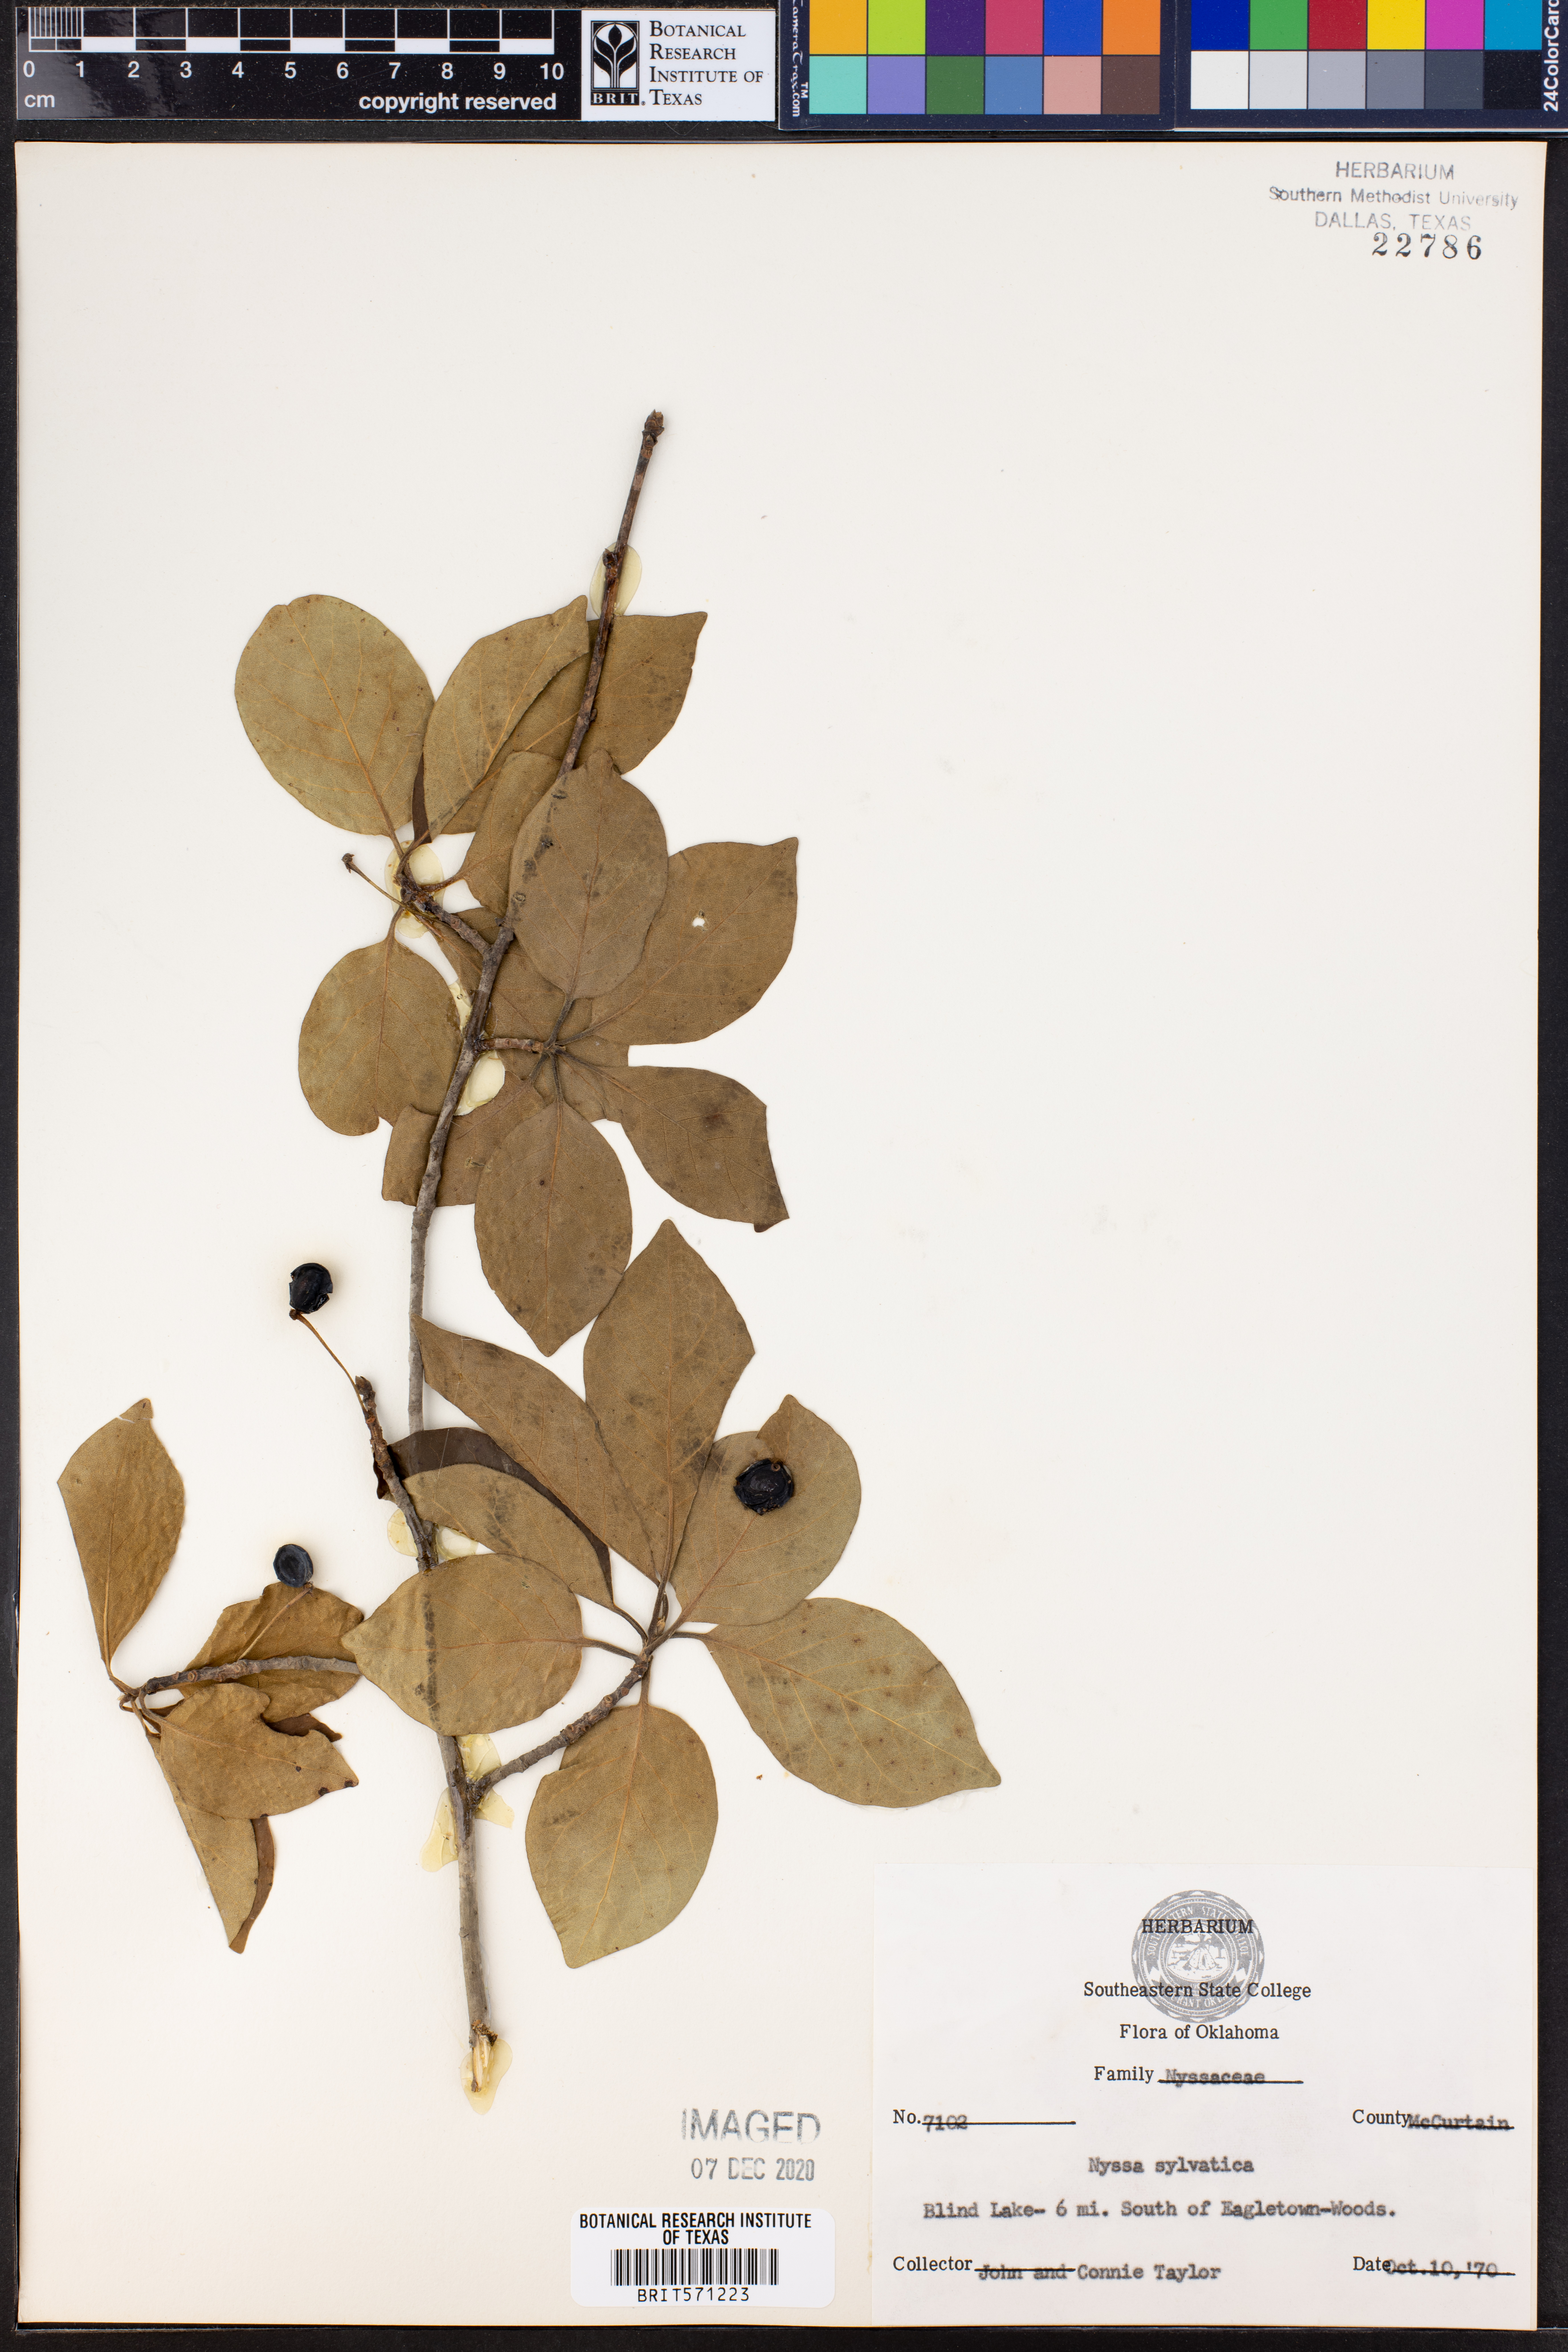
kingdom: Plantae
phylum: Tracheophyta
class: Magnoliopsida
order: Cornales
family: Nyssaceae
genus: Nyssa
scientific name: Nyssa sylvatica
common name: Black tupelo
